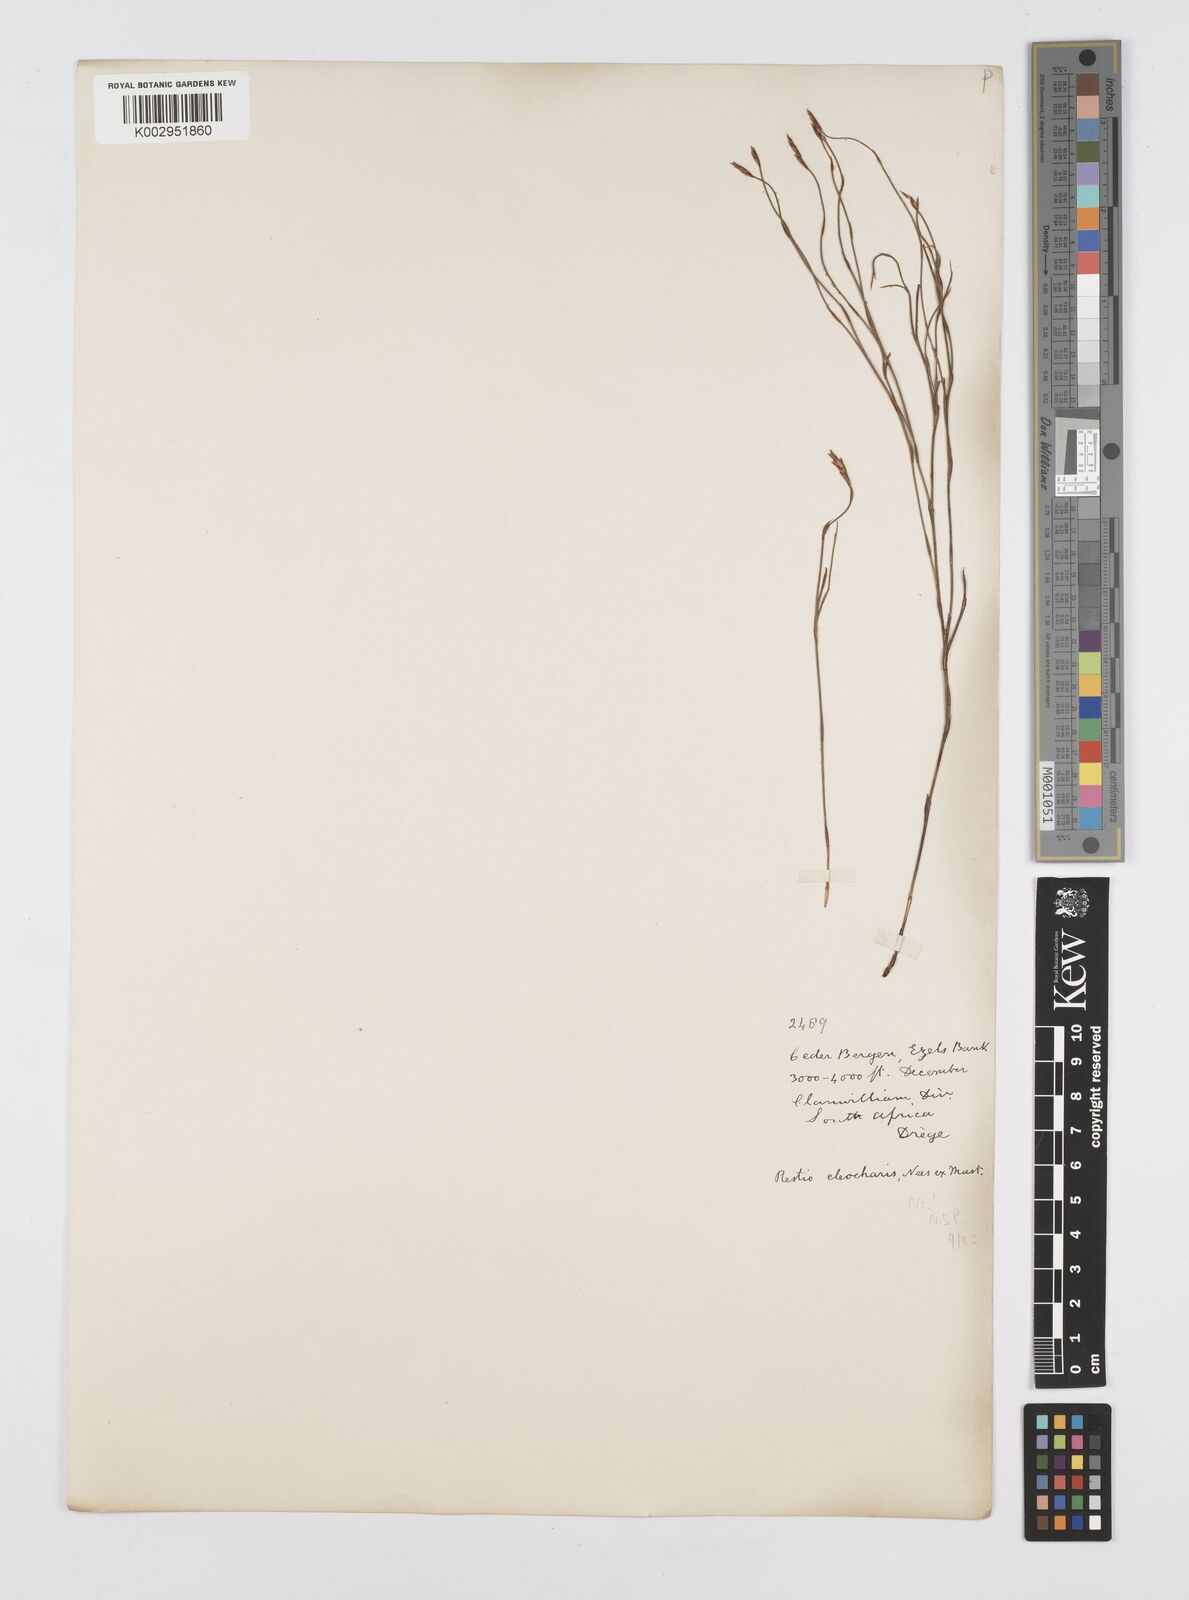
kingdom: Plantae
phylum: Tracheophyta
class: Liliopsida
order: Poales
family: Restionaceae
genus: Restio
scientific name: Restio
